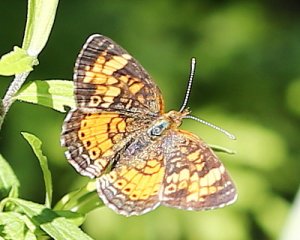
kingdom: Animalia
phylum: Arthropoda
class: Insecta
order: Lepidoptera
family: Nymphalidae
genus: Phyciodes
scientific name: Phyciodes tharos
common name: Pearl Crescent
